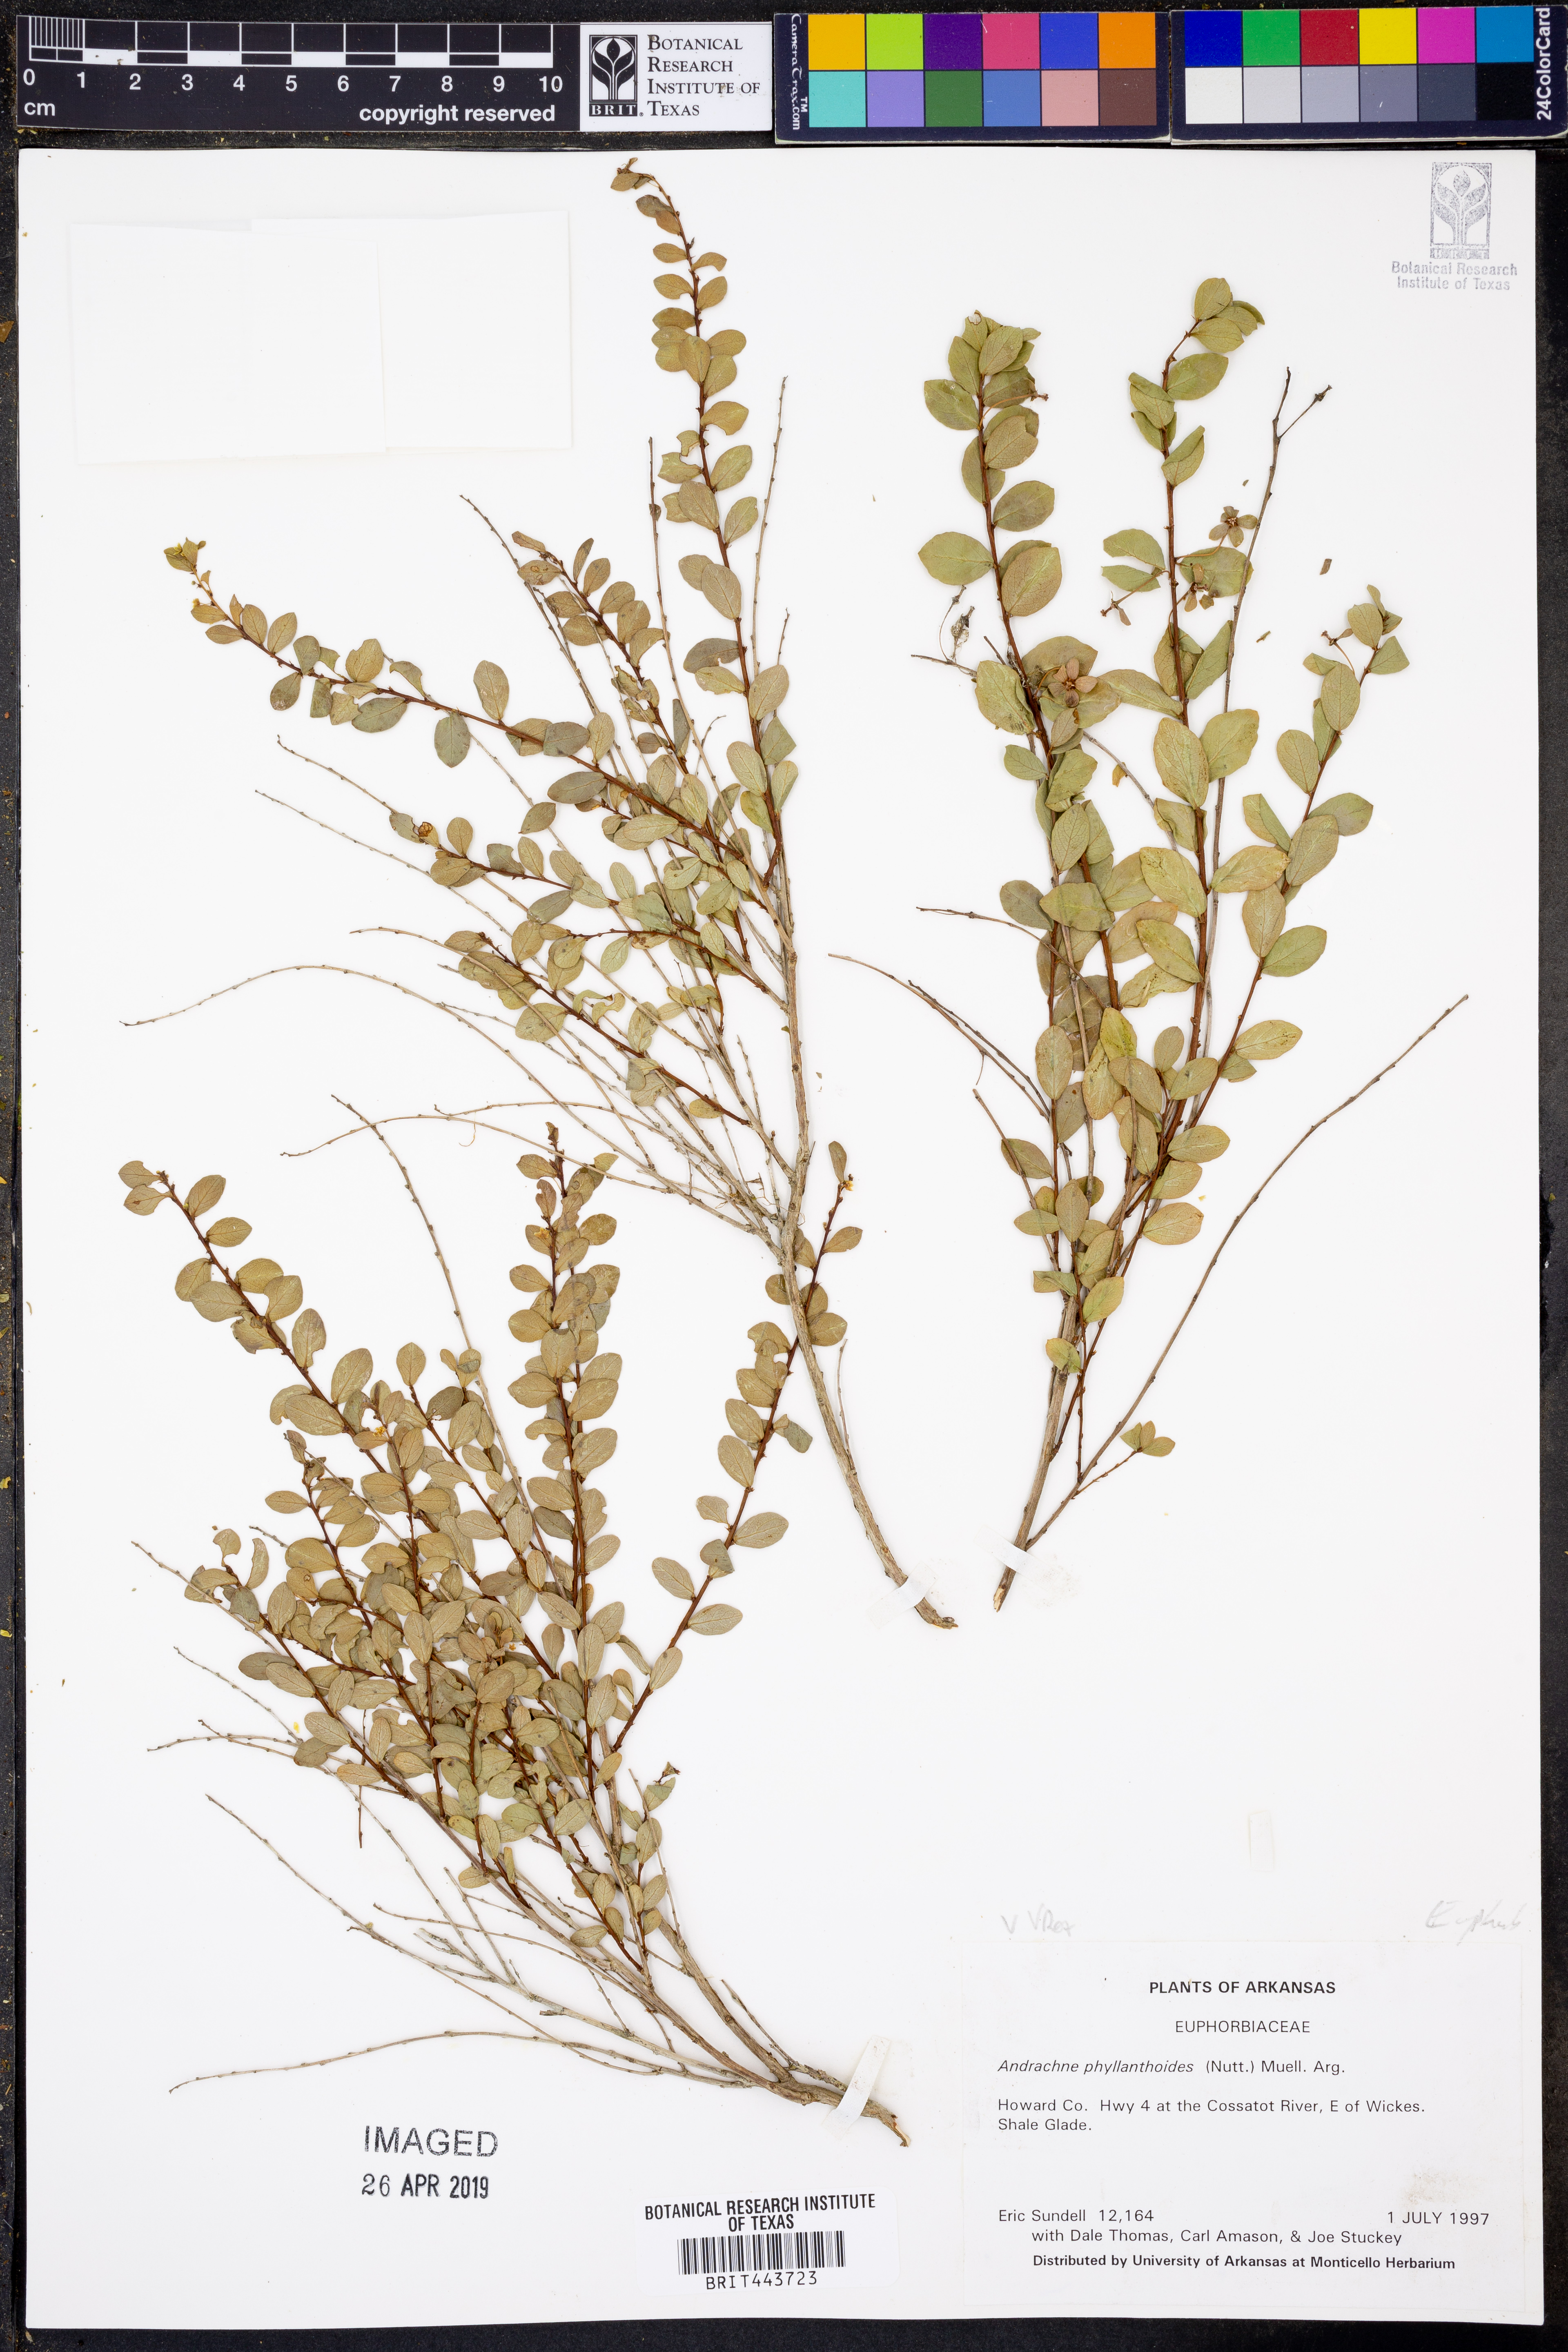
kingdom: Plantae
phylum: Tracheophyta
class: Magnoliopsida
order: Malpighiales
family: Phyllanthaceae
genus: Phyllanthopsis
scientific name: Phyllanthopsis phyllanthoides
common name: Missouri maidenbush
